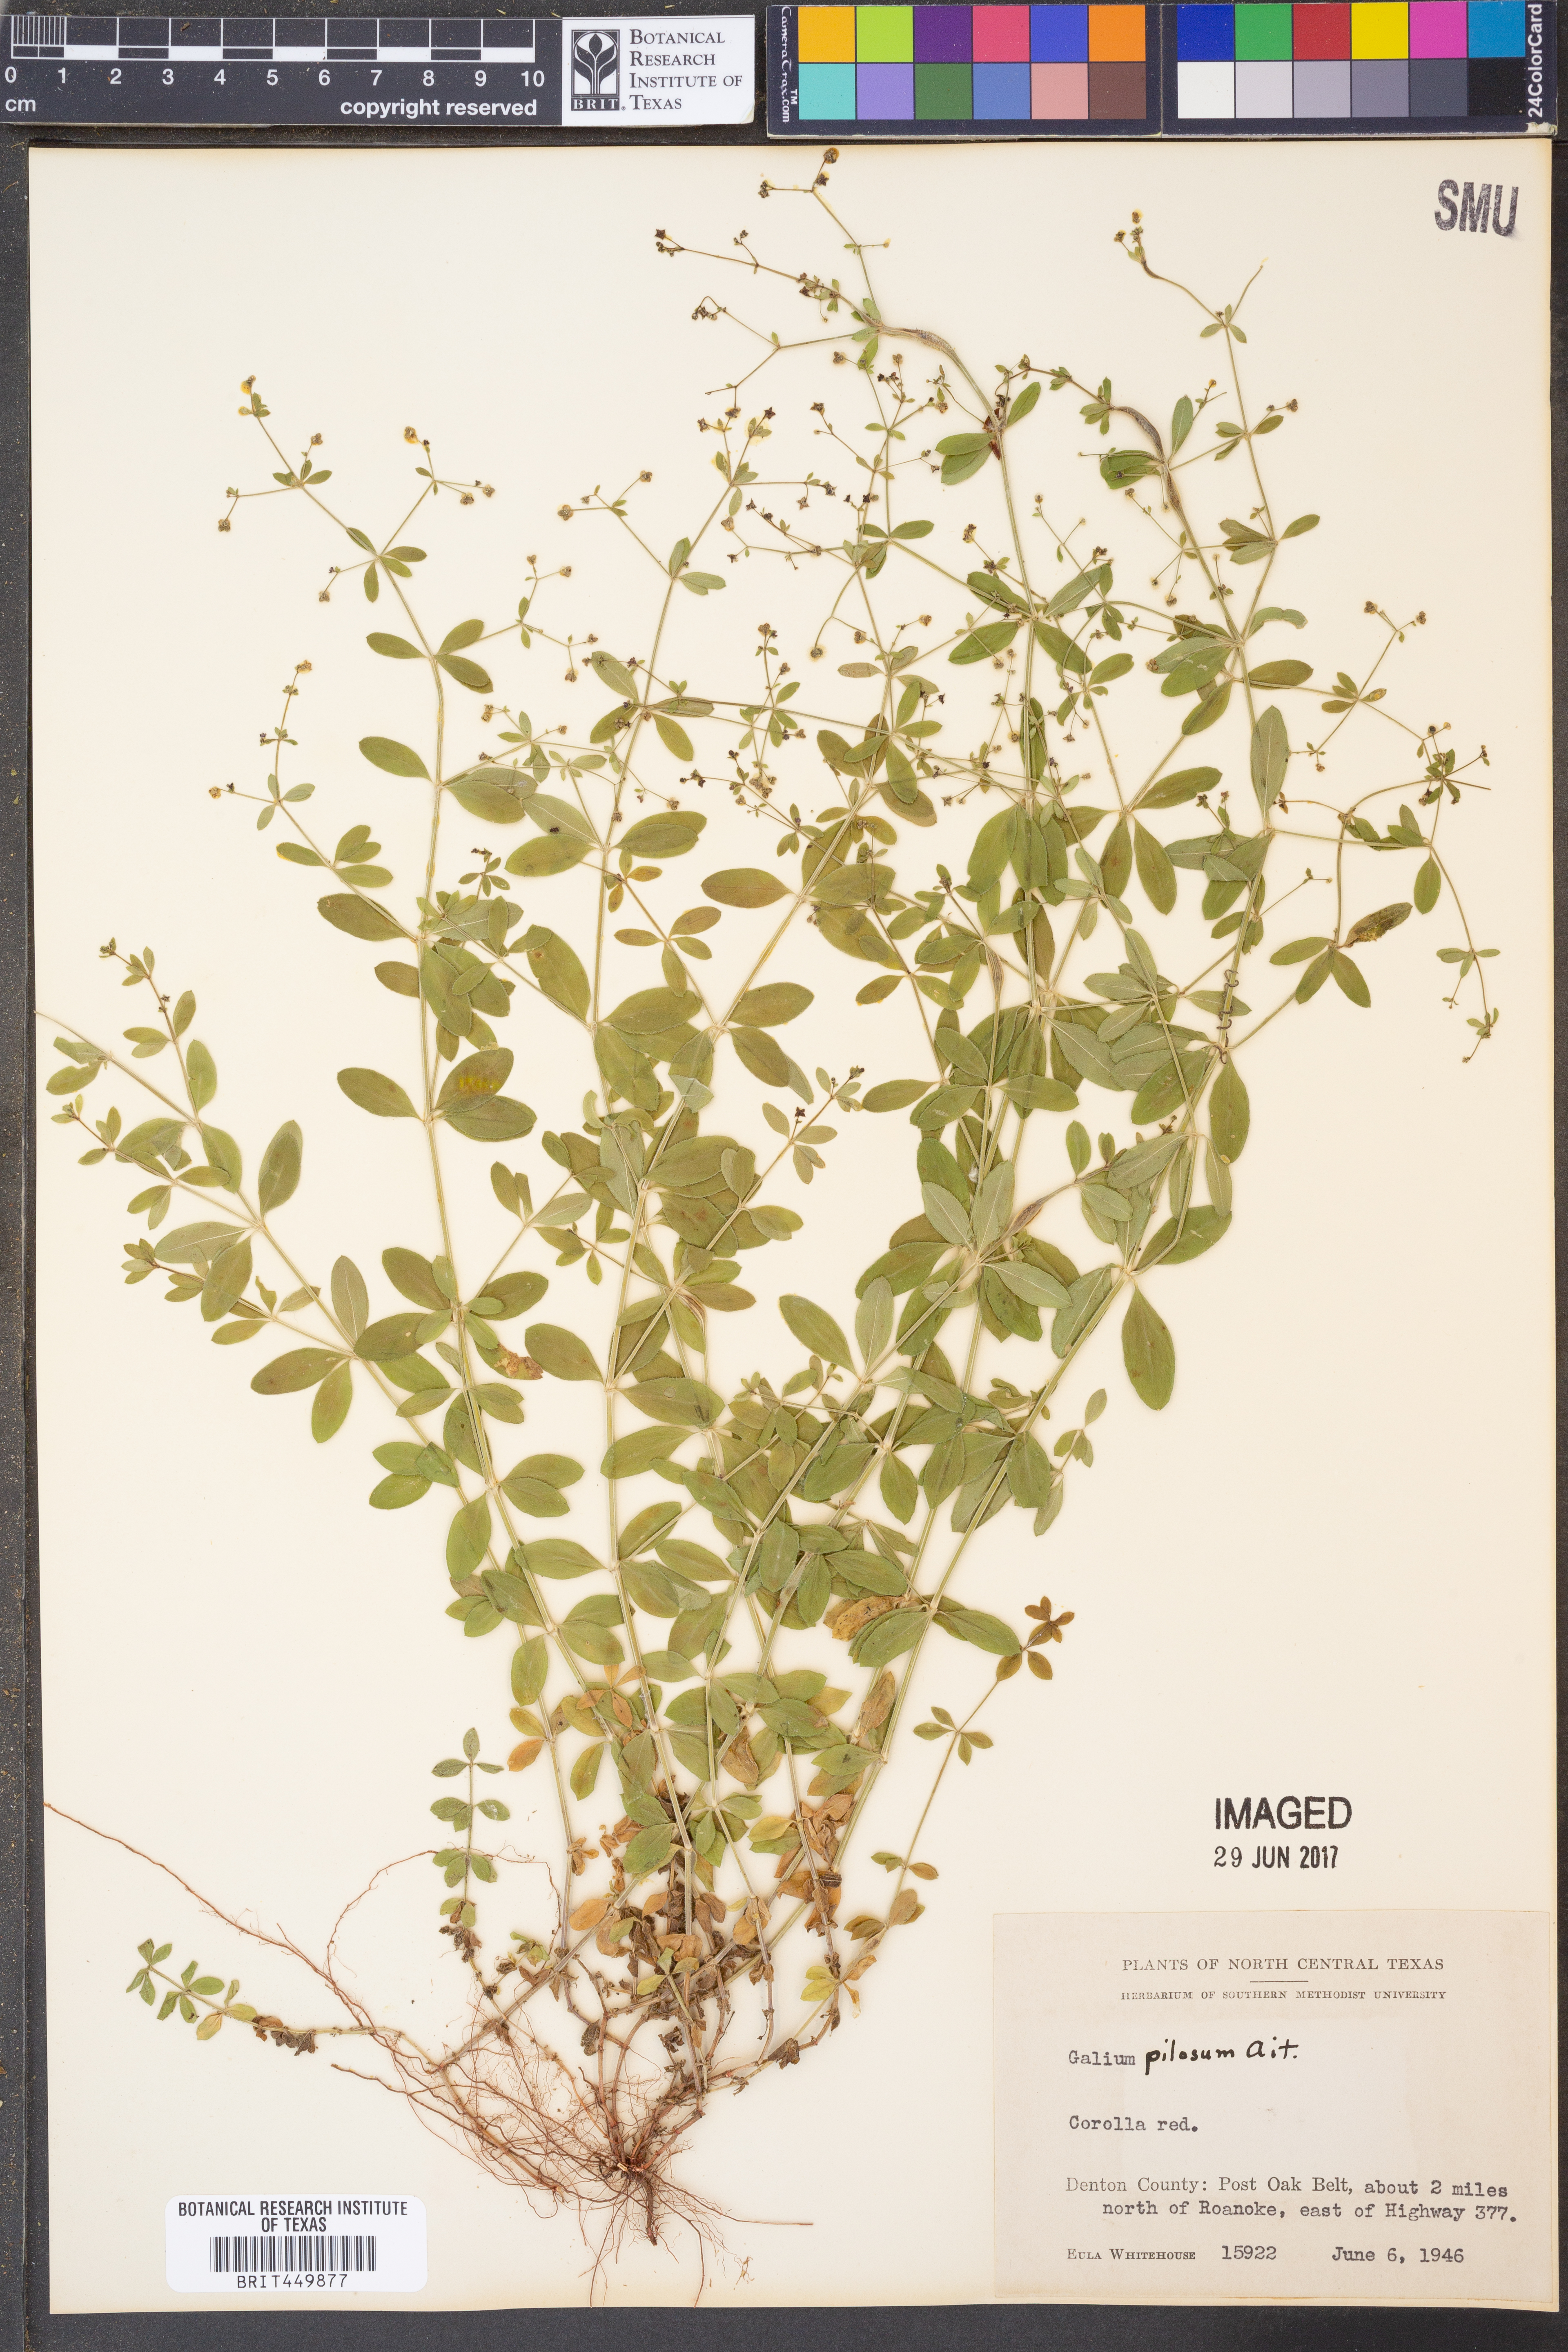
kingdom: Plantae
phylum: Tracheophyta
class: Magnoliopsida
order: Gentianales
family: Rubiaceae
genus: Galium
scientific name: Galium pilosum
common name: Hairy bedstraw
